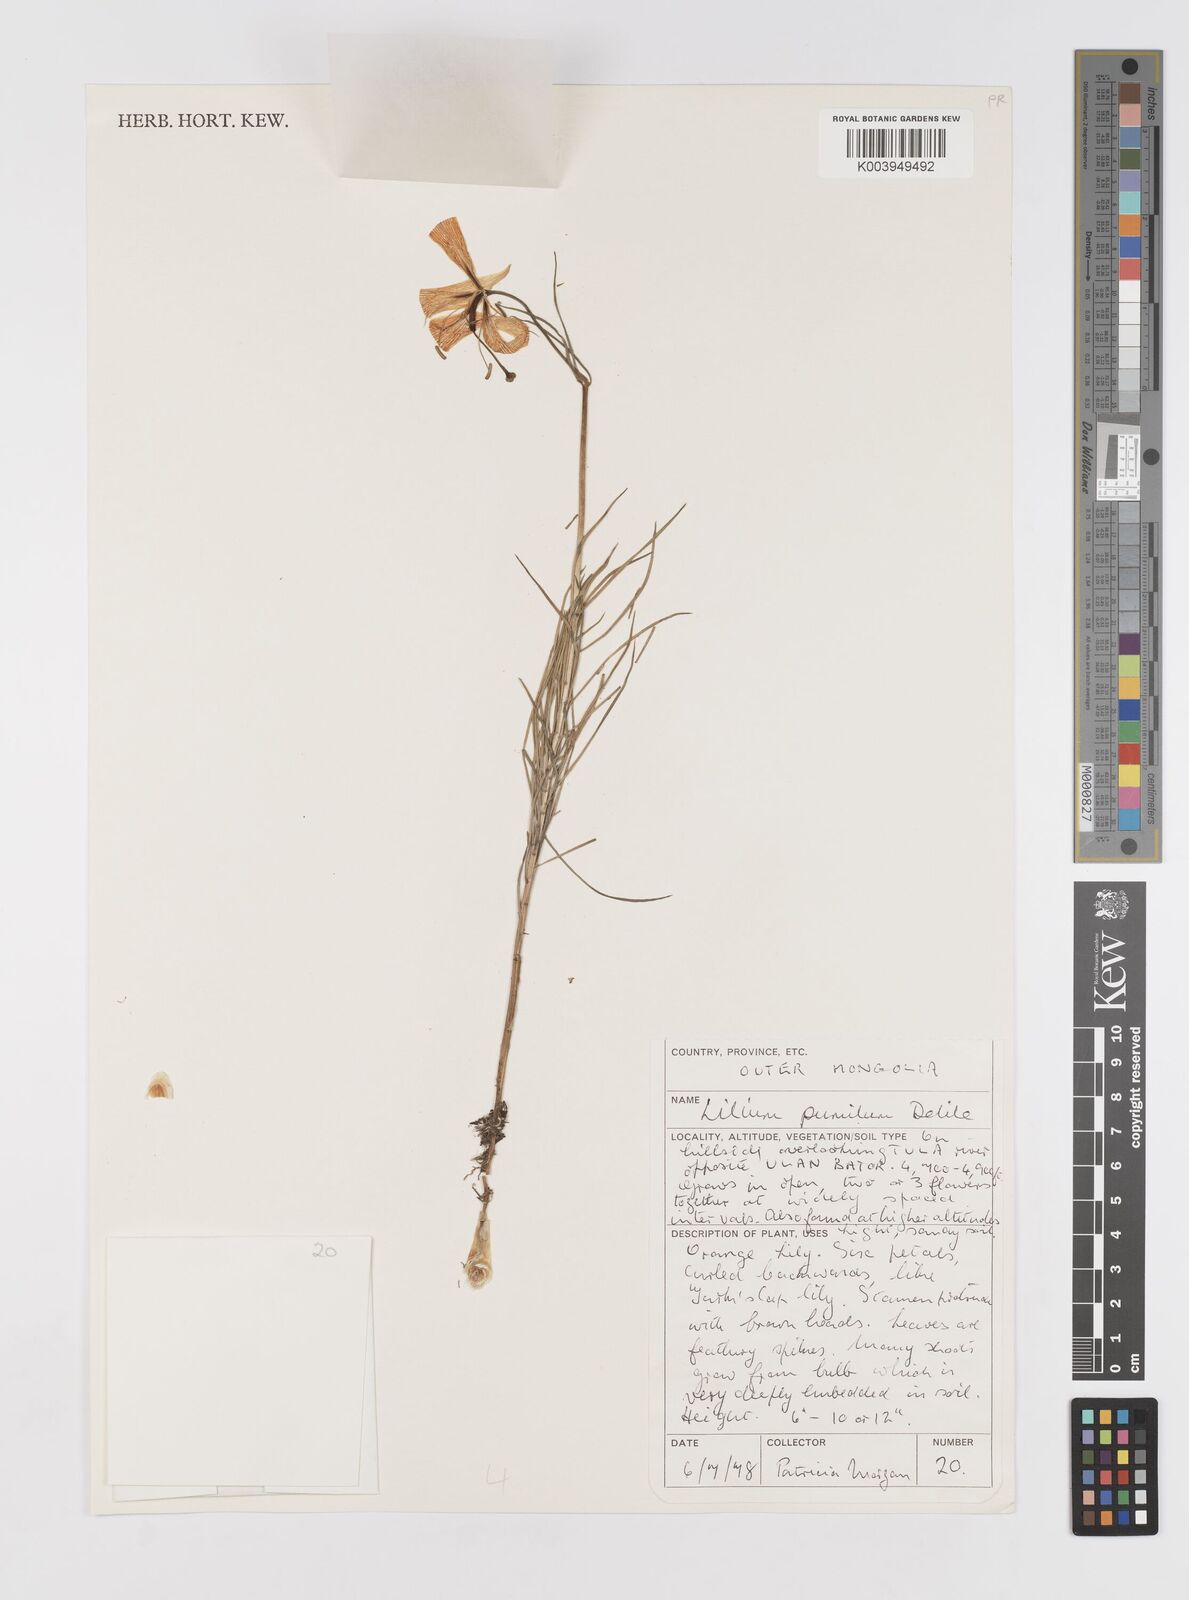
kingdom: Plantae
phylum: Tracheophyta
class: Liliopsida
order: Liliales
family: Liliaceae
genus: Lilium
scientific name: Lilium pumilum
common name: Coral lily
